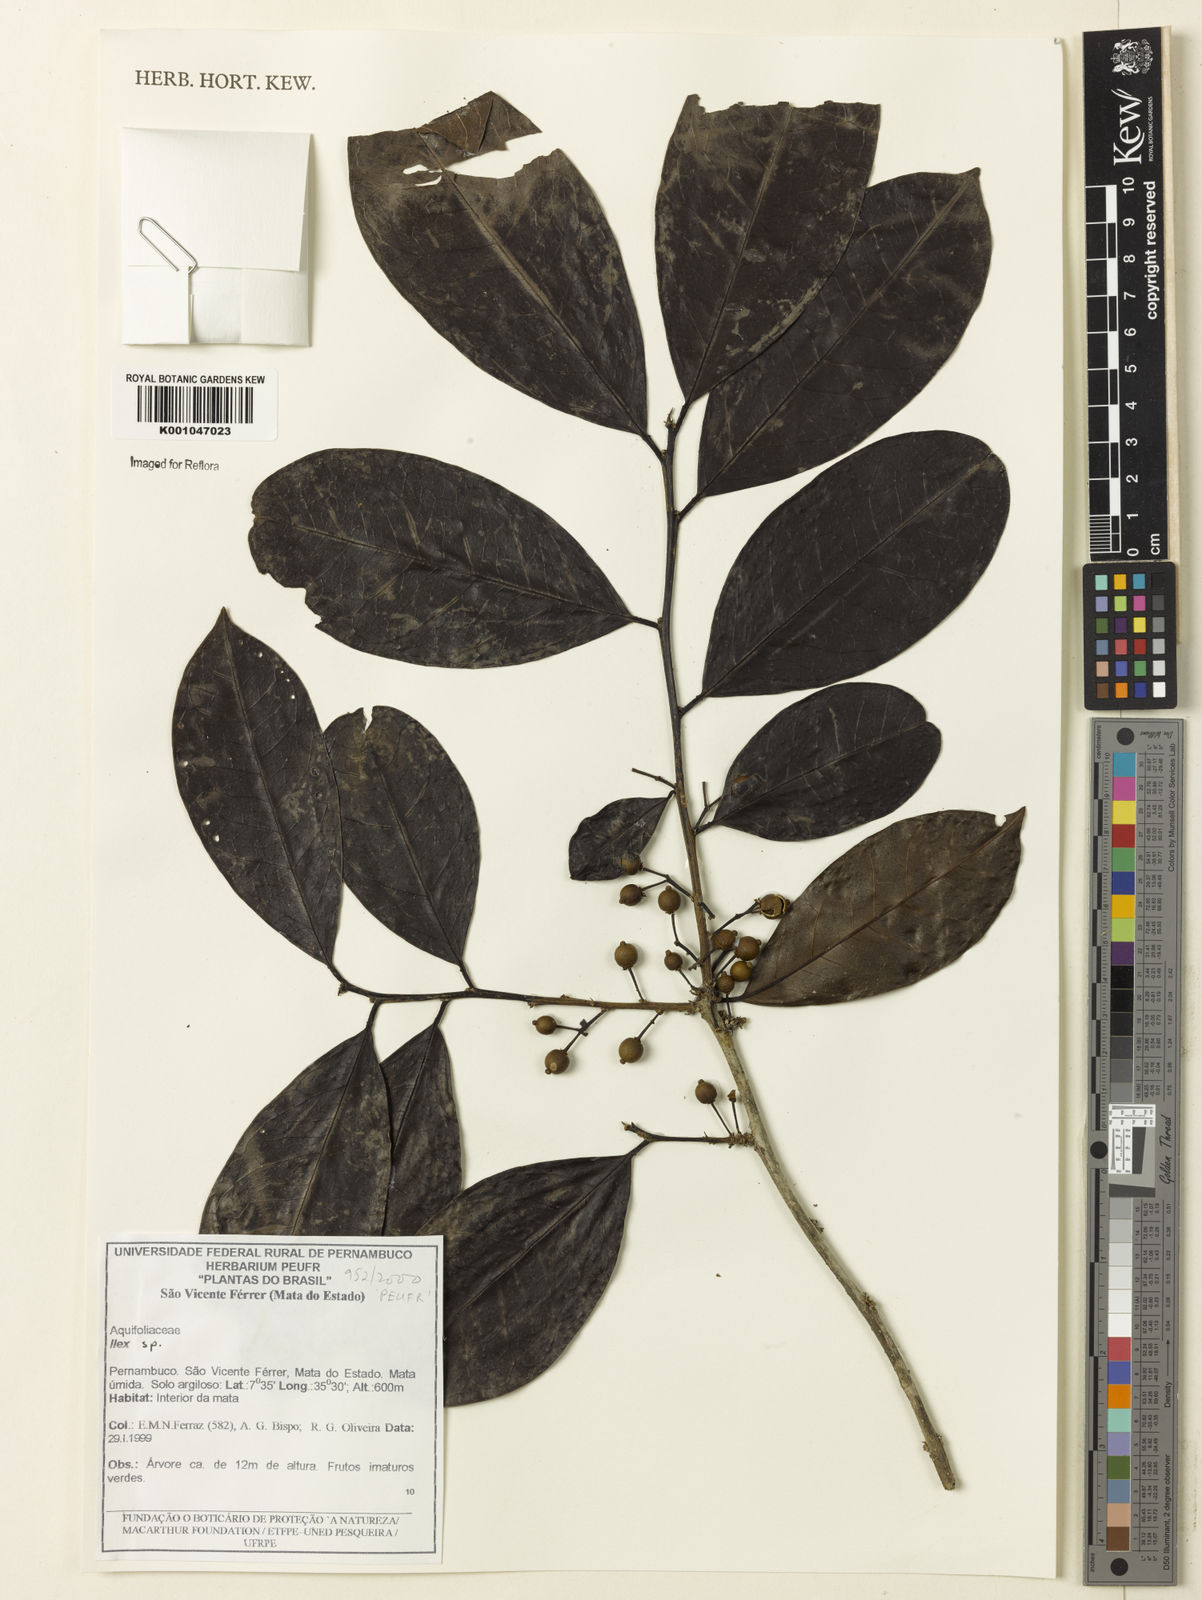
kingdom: Plantae
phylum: Tracheophyta
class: Magnoliopsida
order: Aquifoliales
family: Aquifoliaceae
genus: Ilex
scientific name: Ilex
